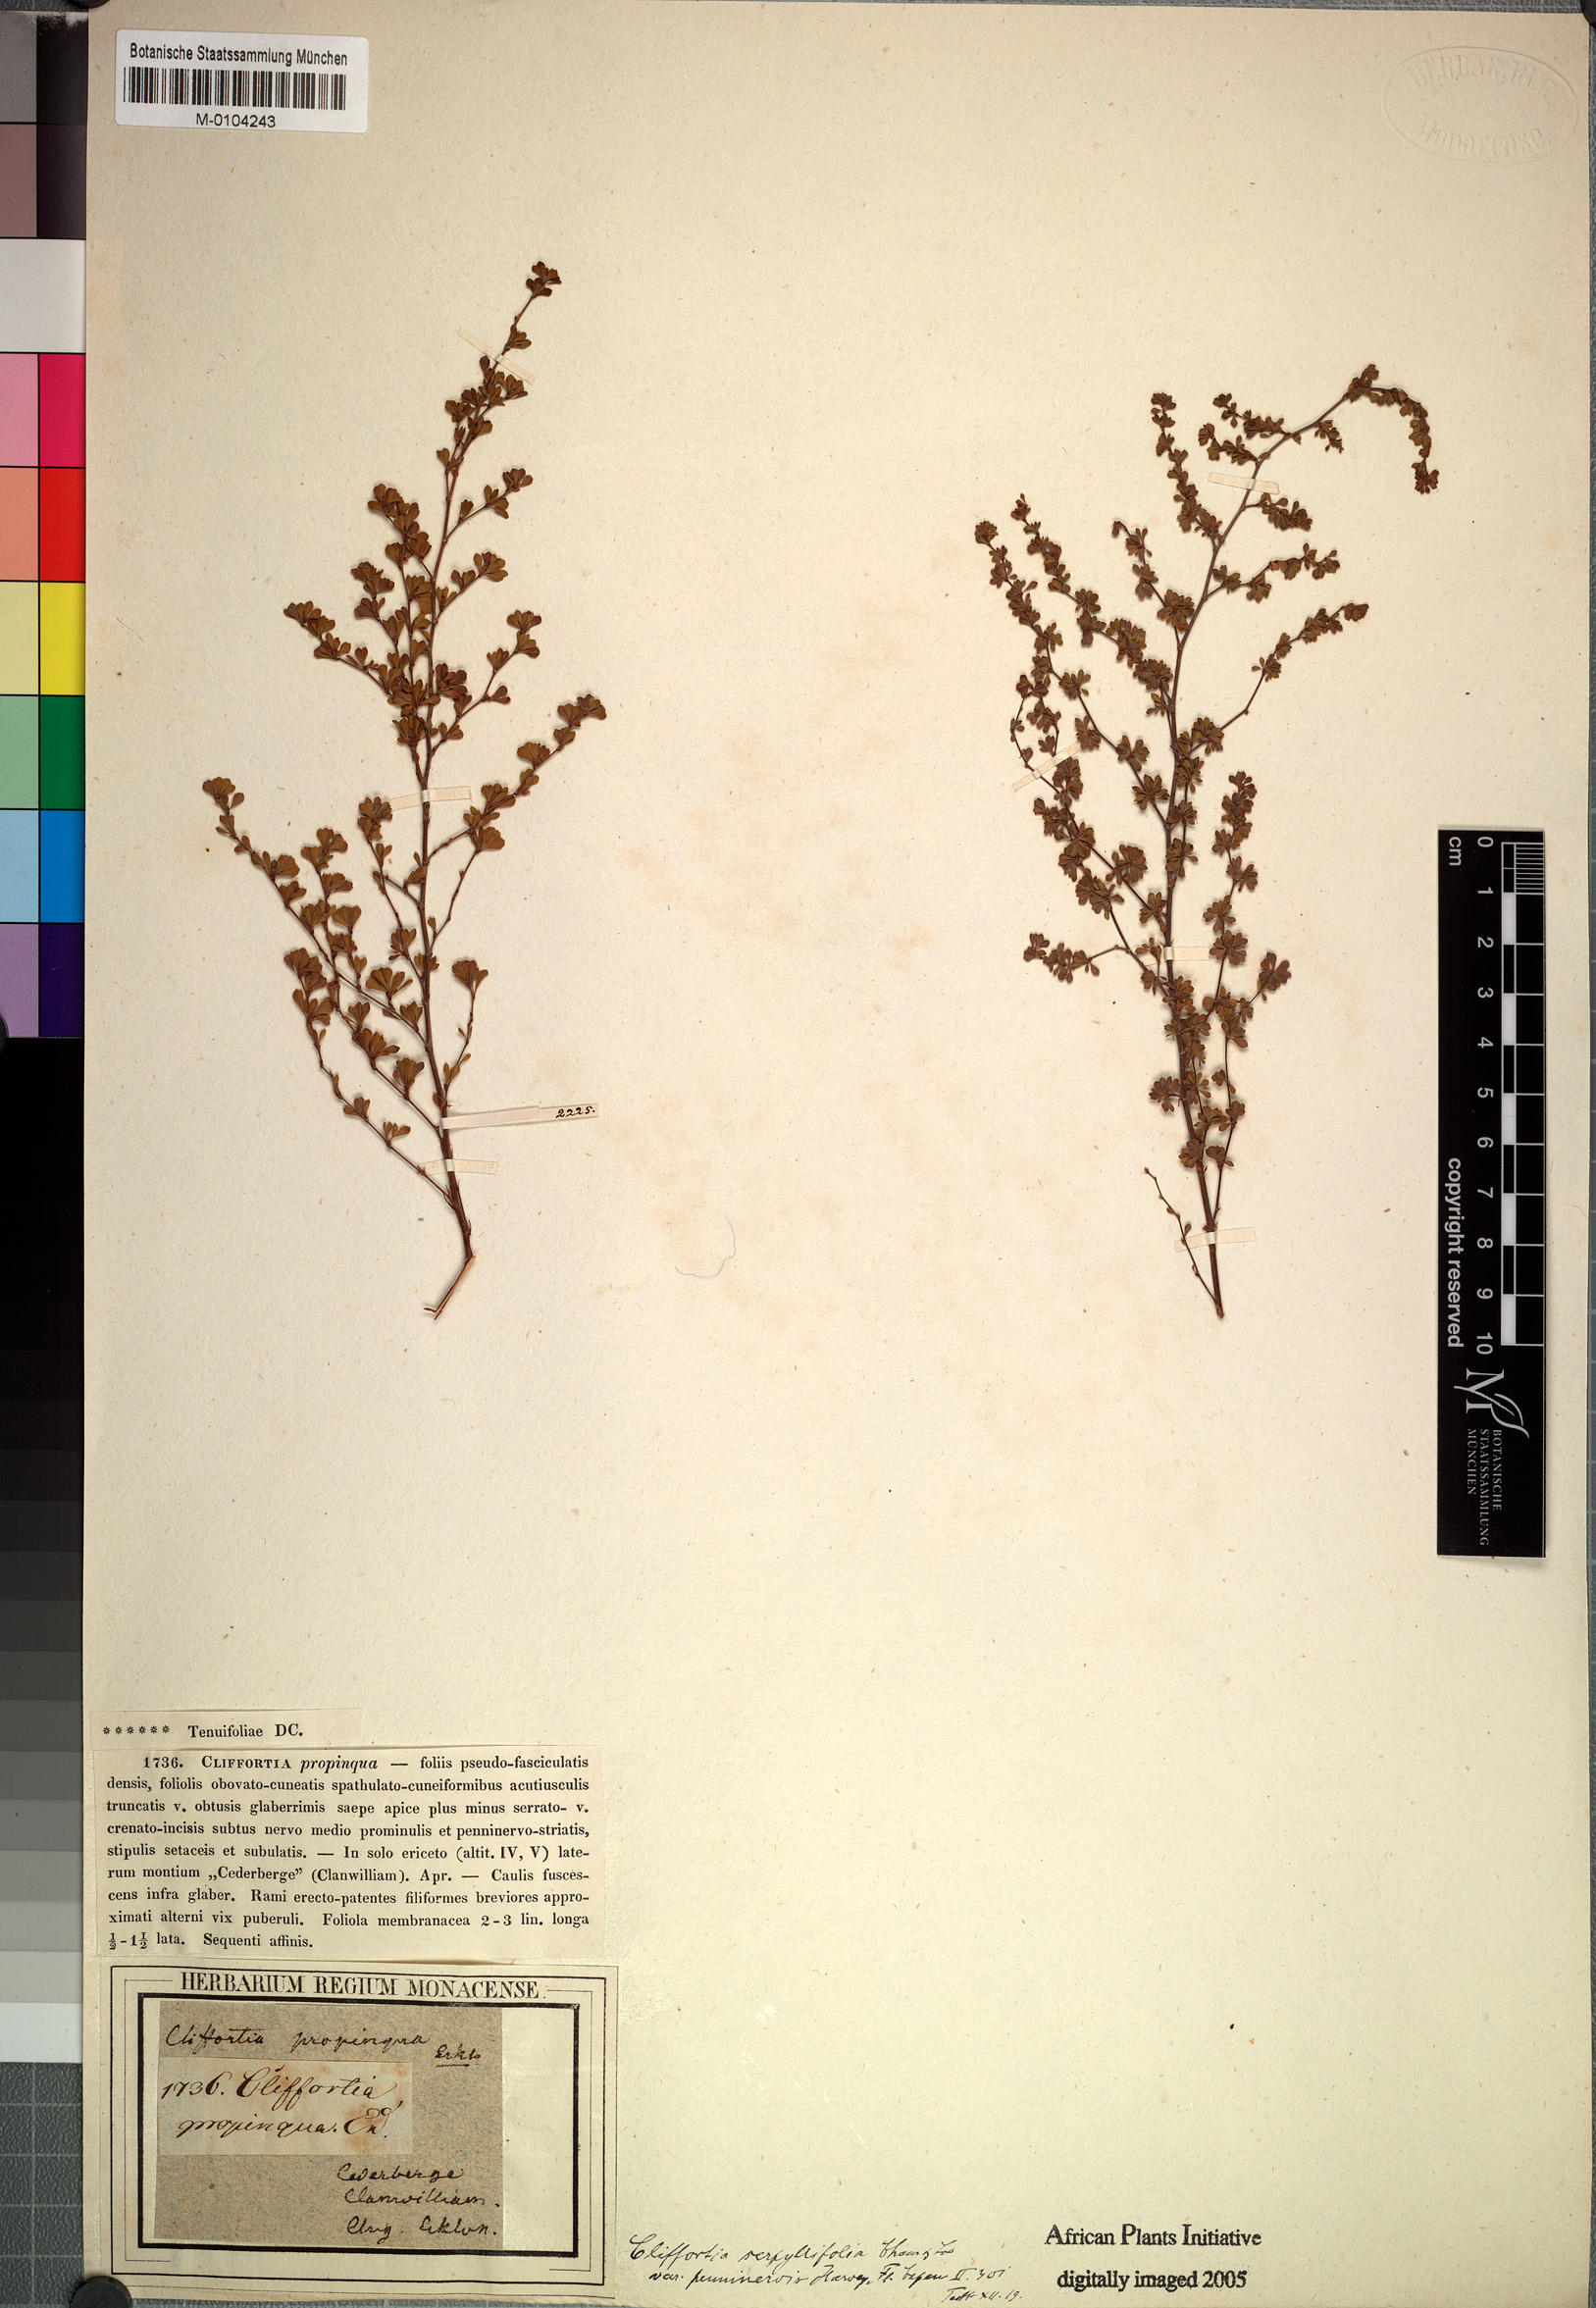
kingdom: Plantae
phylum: Tracheophyta
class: Magnoliopsida
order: Rosales
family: Rosaceae
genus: Cliffortia
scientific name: Cliffortia propinqua
